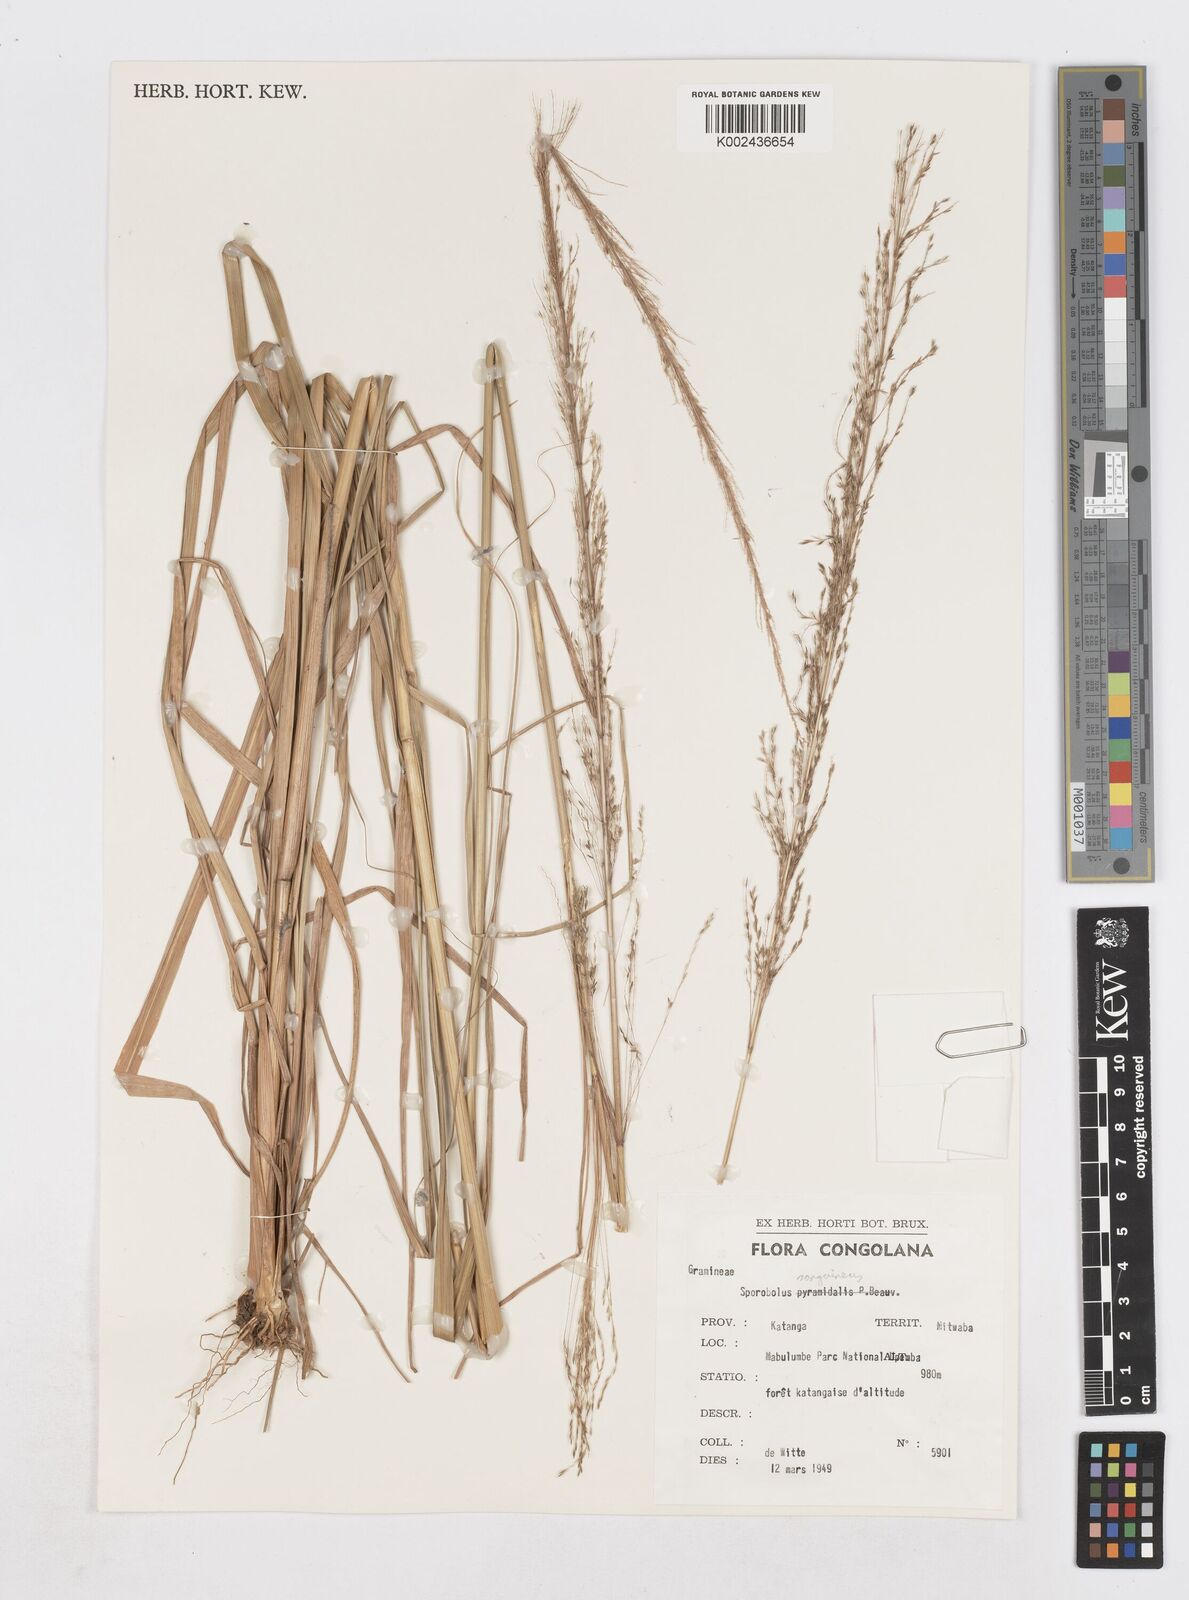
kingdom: Plantae
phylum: Tracheophyta
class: Liliopsida
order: Poales
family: Poaceae
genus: Sporobolus
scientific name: Sporobolus sanguineus
